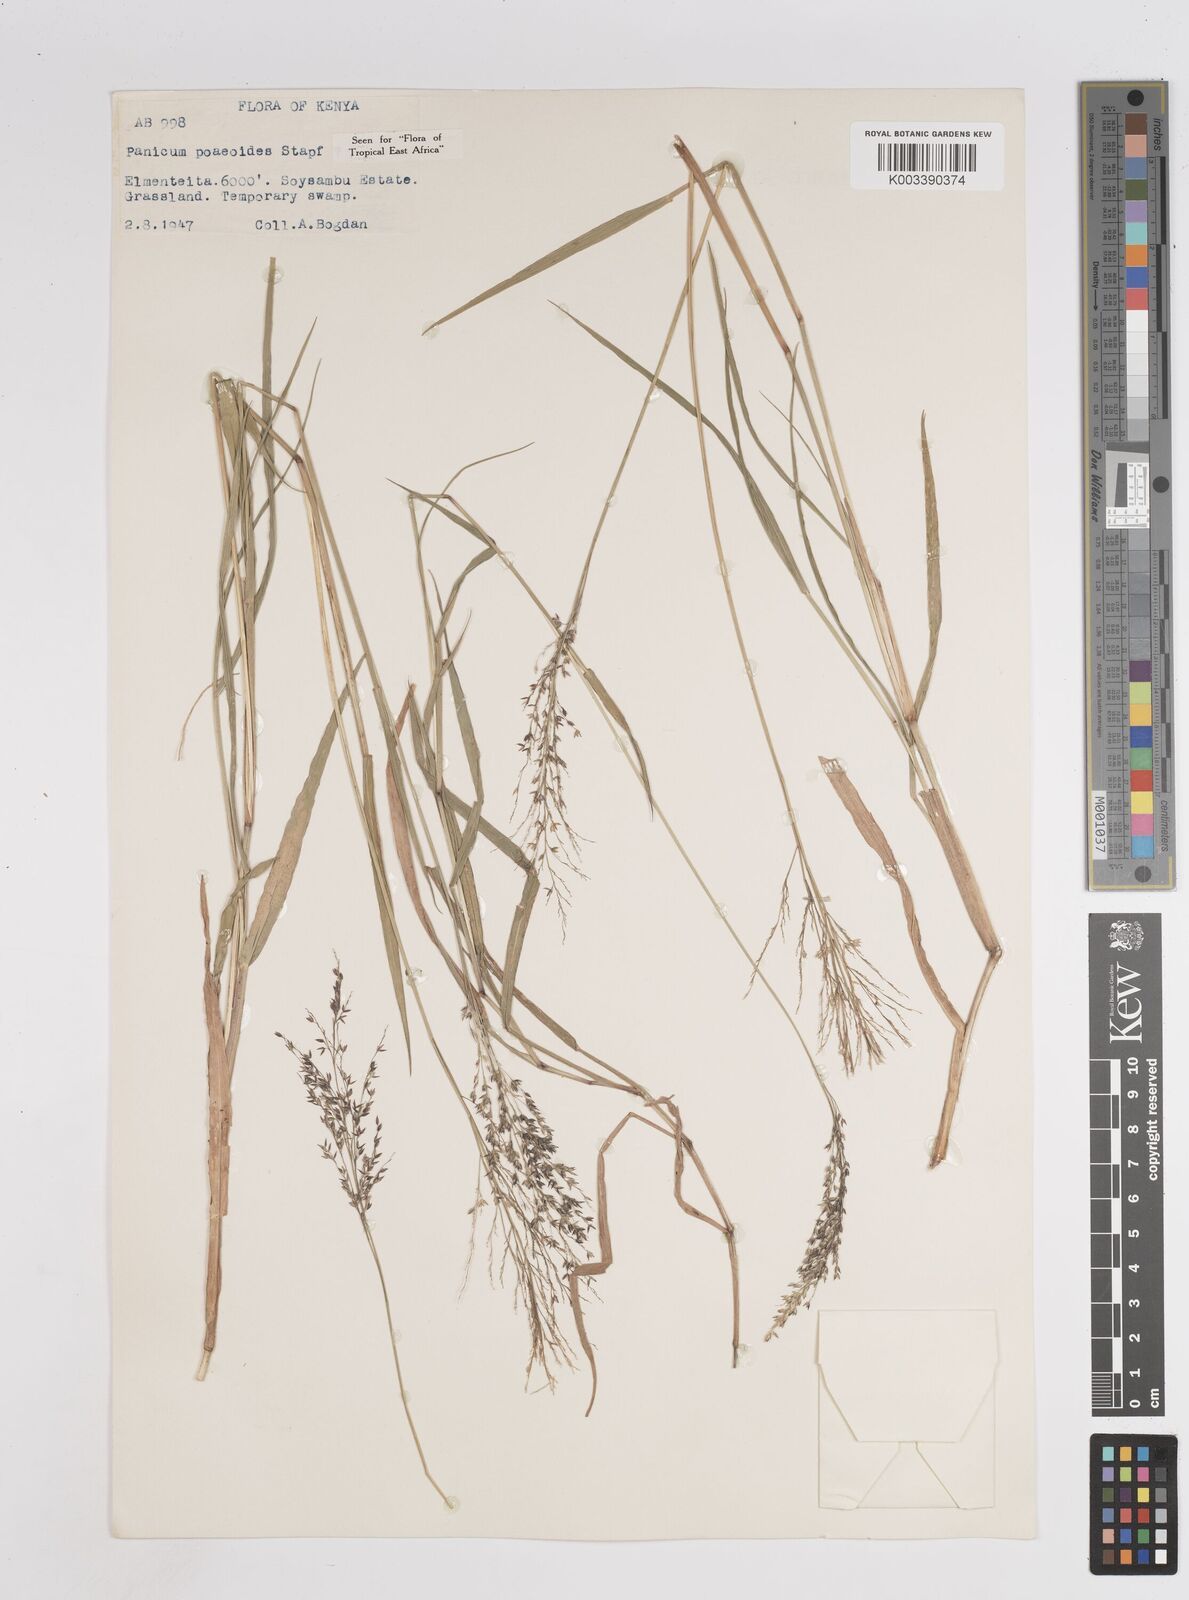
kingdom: Plantae
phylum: Tracheophyta
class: Liliopsida
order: Poales
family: Poaceae
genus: Panicum
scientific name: Panicum
